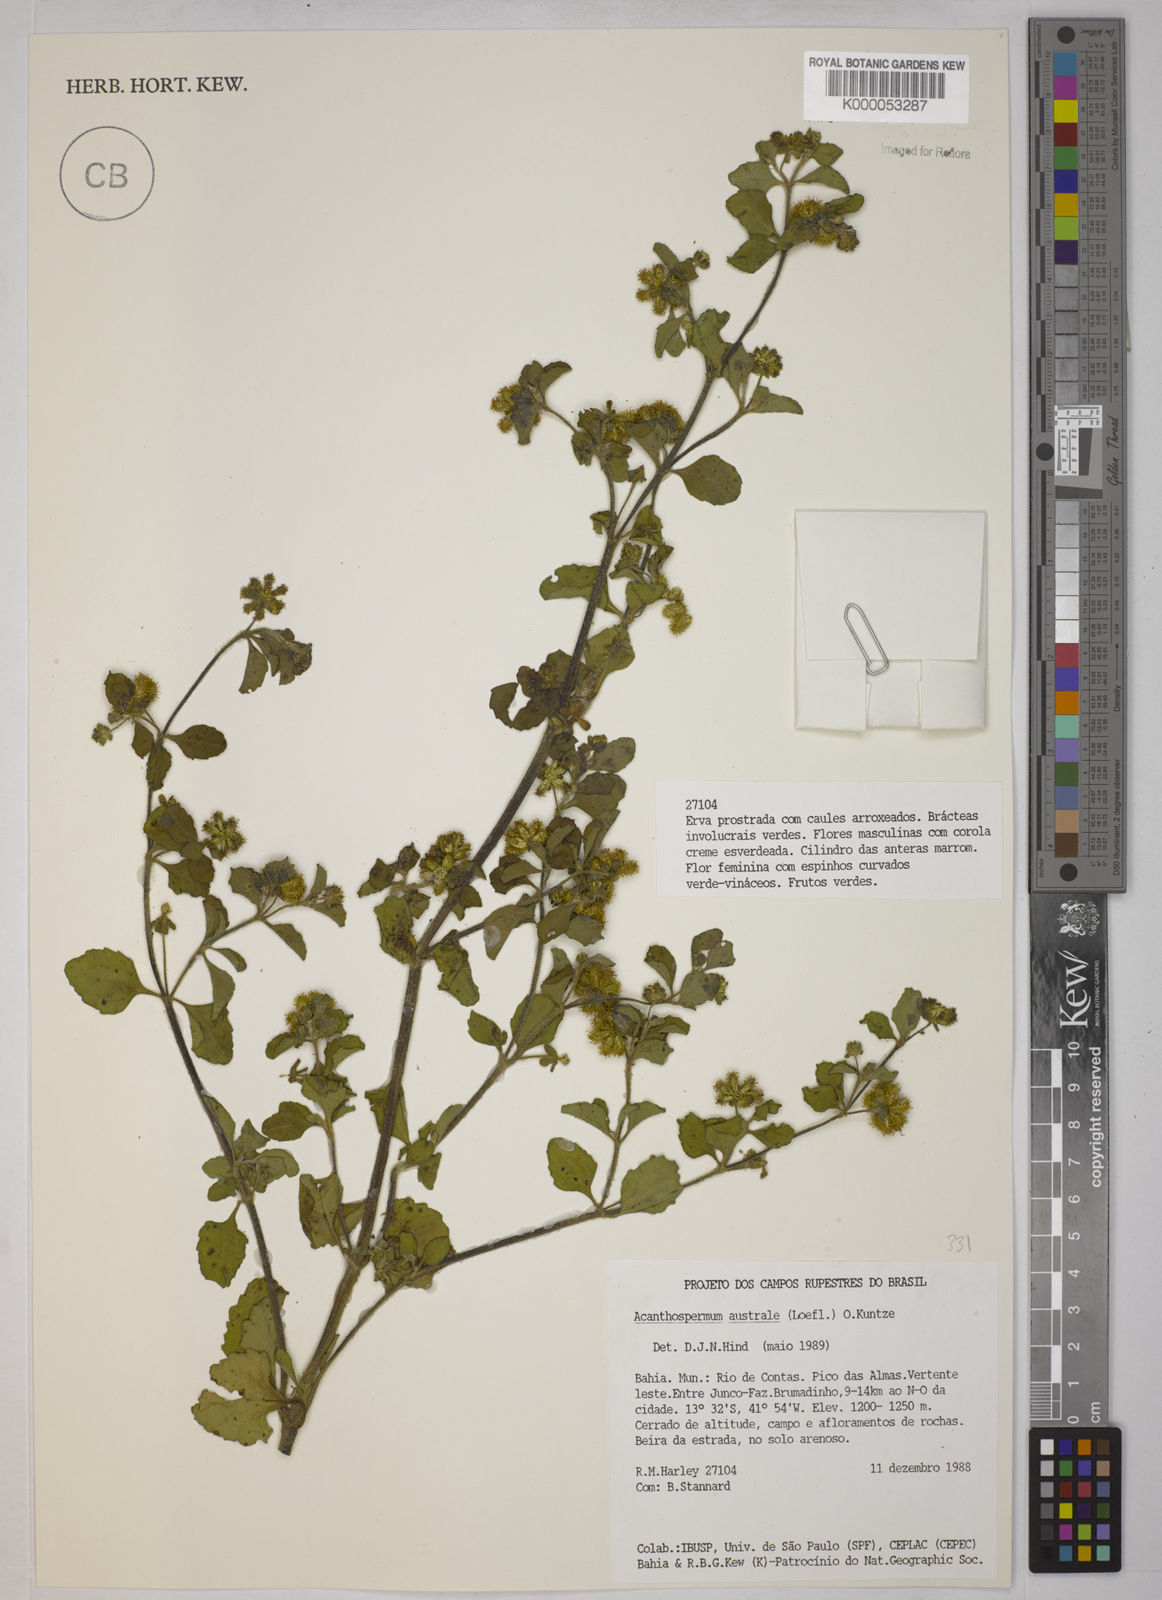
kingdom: Plantae
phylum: Tracheophyta
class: Magnoliopsida
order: Asterales
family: Asteraceae
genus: Acanthospermum
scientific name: Acanthospermum australe
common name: Paraguayan starbur
